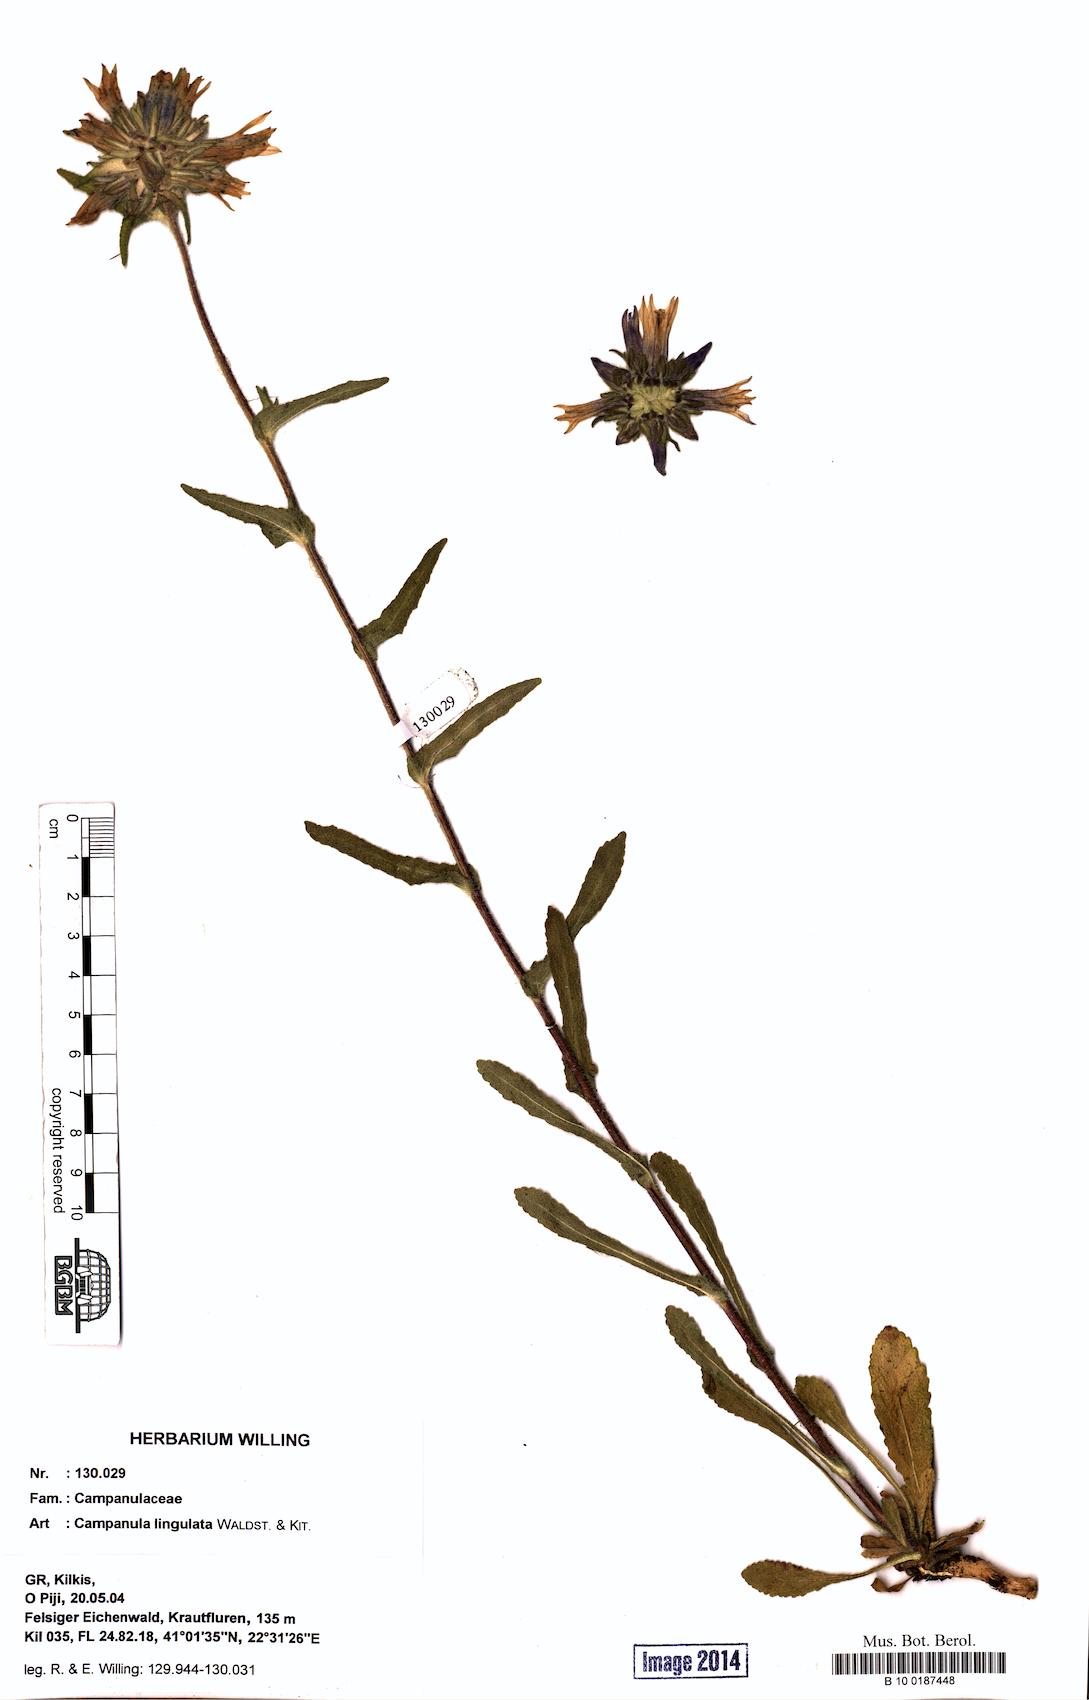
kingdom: Plantae
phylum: Tracheophyta
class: Magnoliopsida
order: Asterales
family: Campanulaceae
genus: Campanula
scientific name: Campanula lingulata
